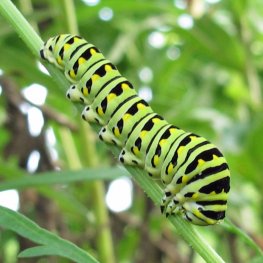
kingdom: Animalia
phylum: Arthropoda
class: Insecta
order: Lepidoptera
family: Papilionidae
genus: Papilio
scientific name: Papilio polyxenes
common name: Black Swallowtail
